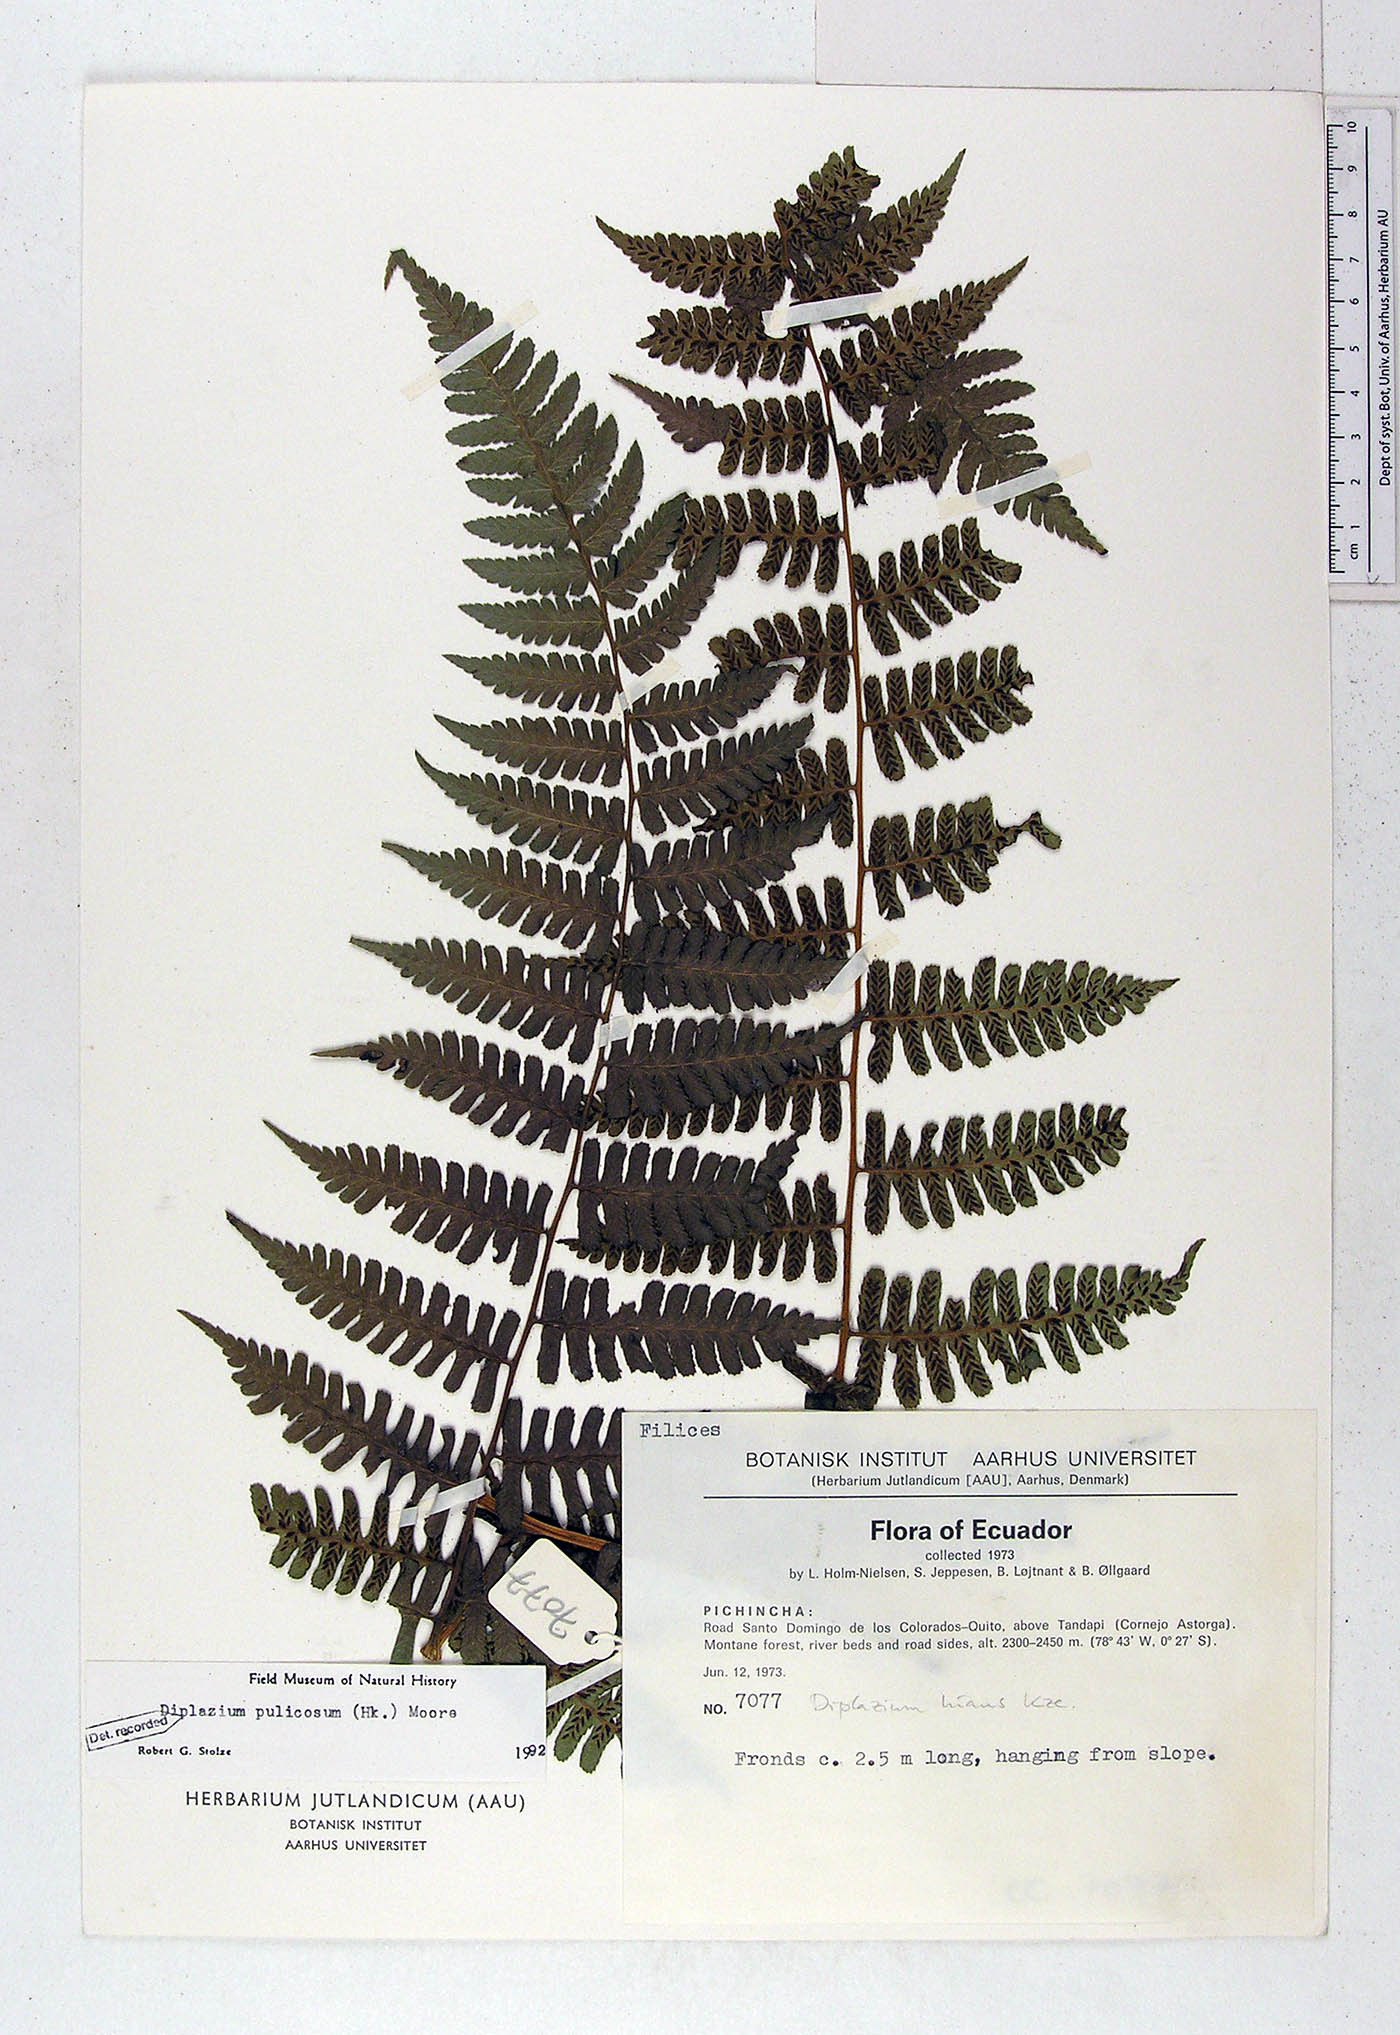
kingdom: Plantae
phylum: Tracheophyta
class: Polypodiopsida
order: Polypodiales
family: Athyriaceae
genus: Diplazium
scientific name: Diplazium pulicosum
